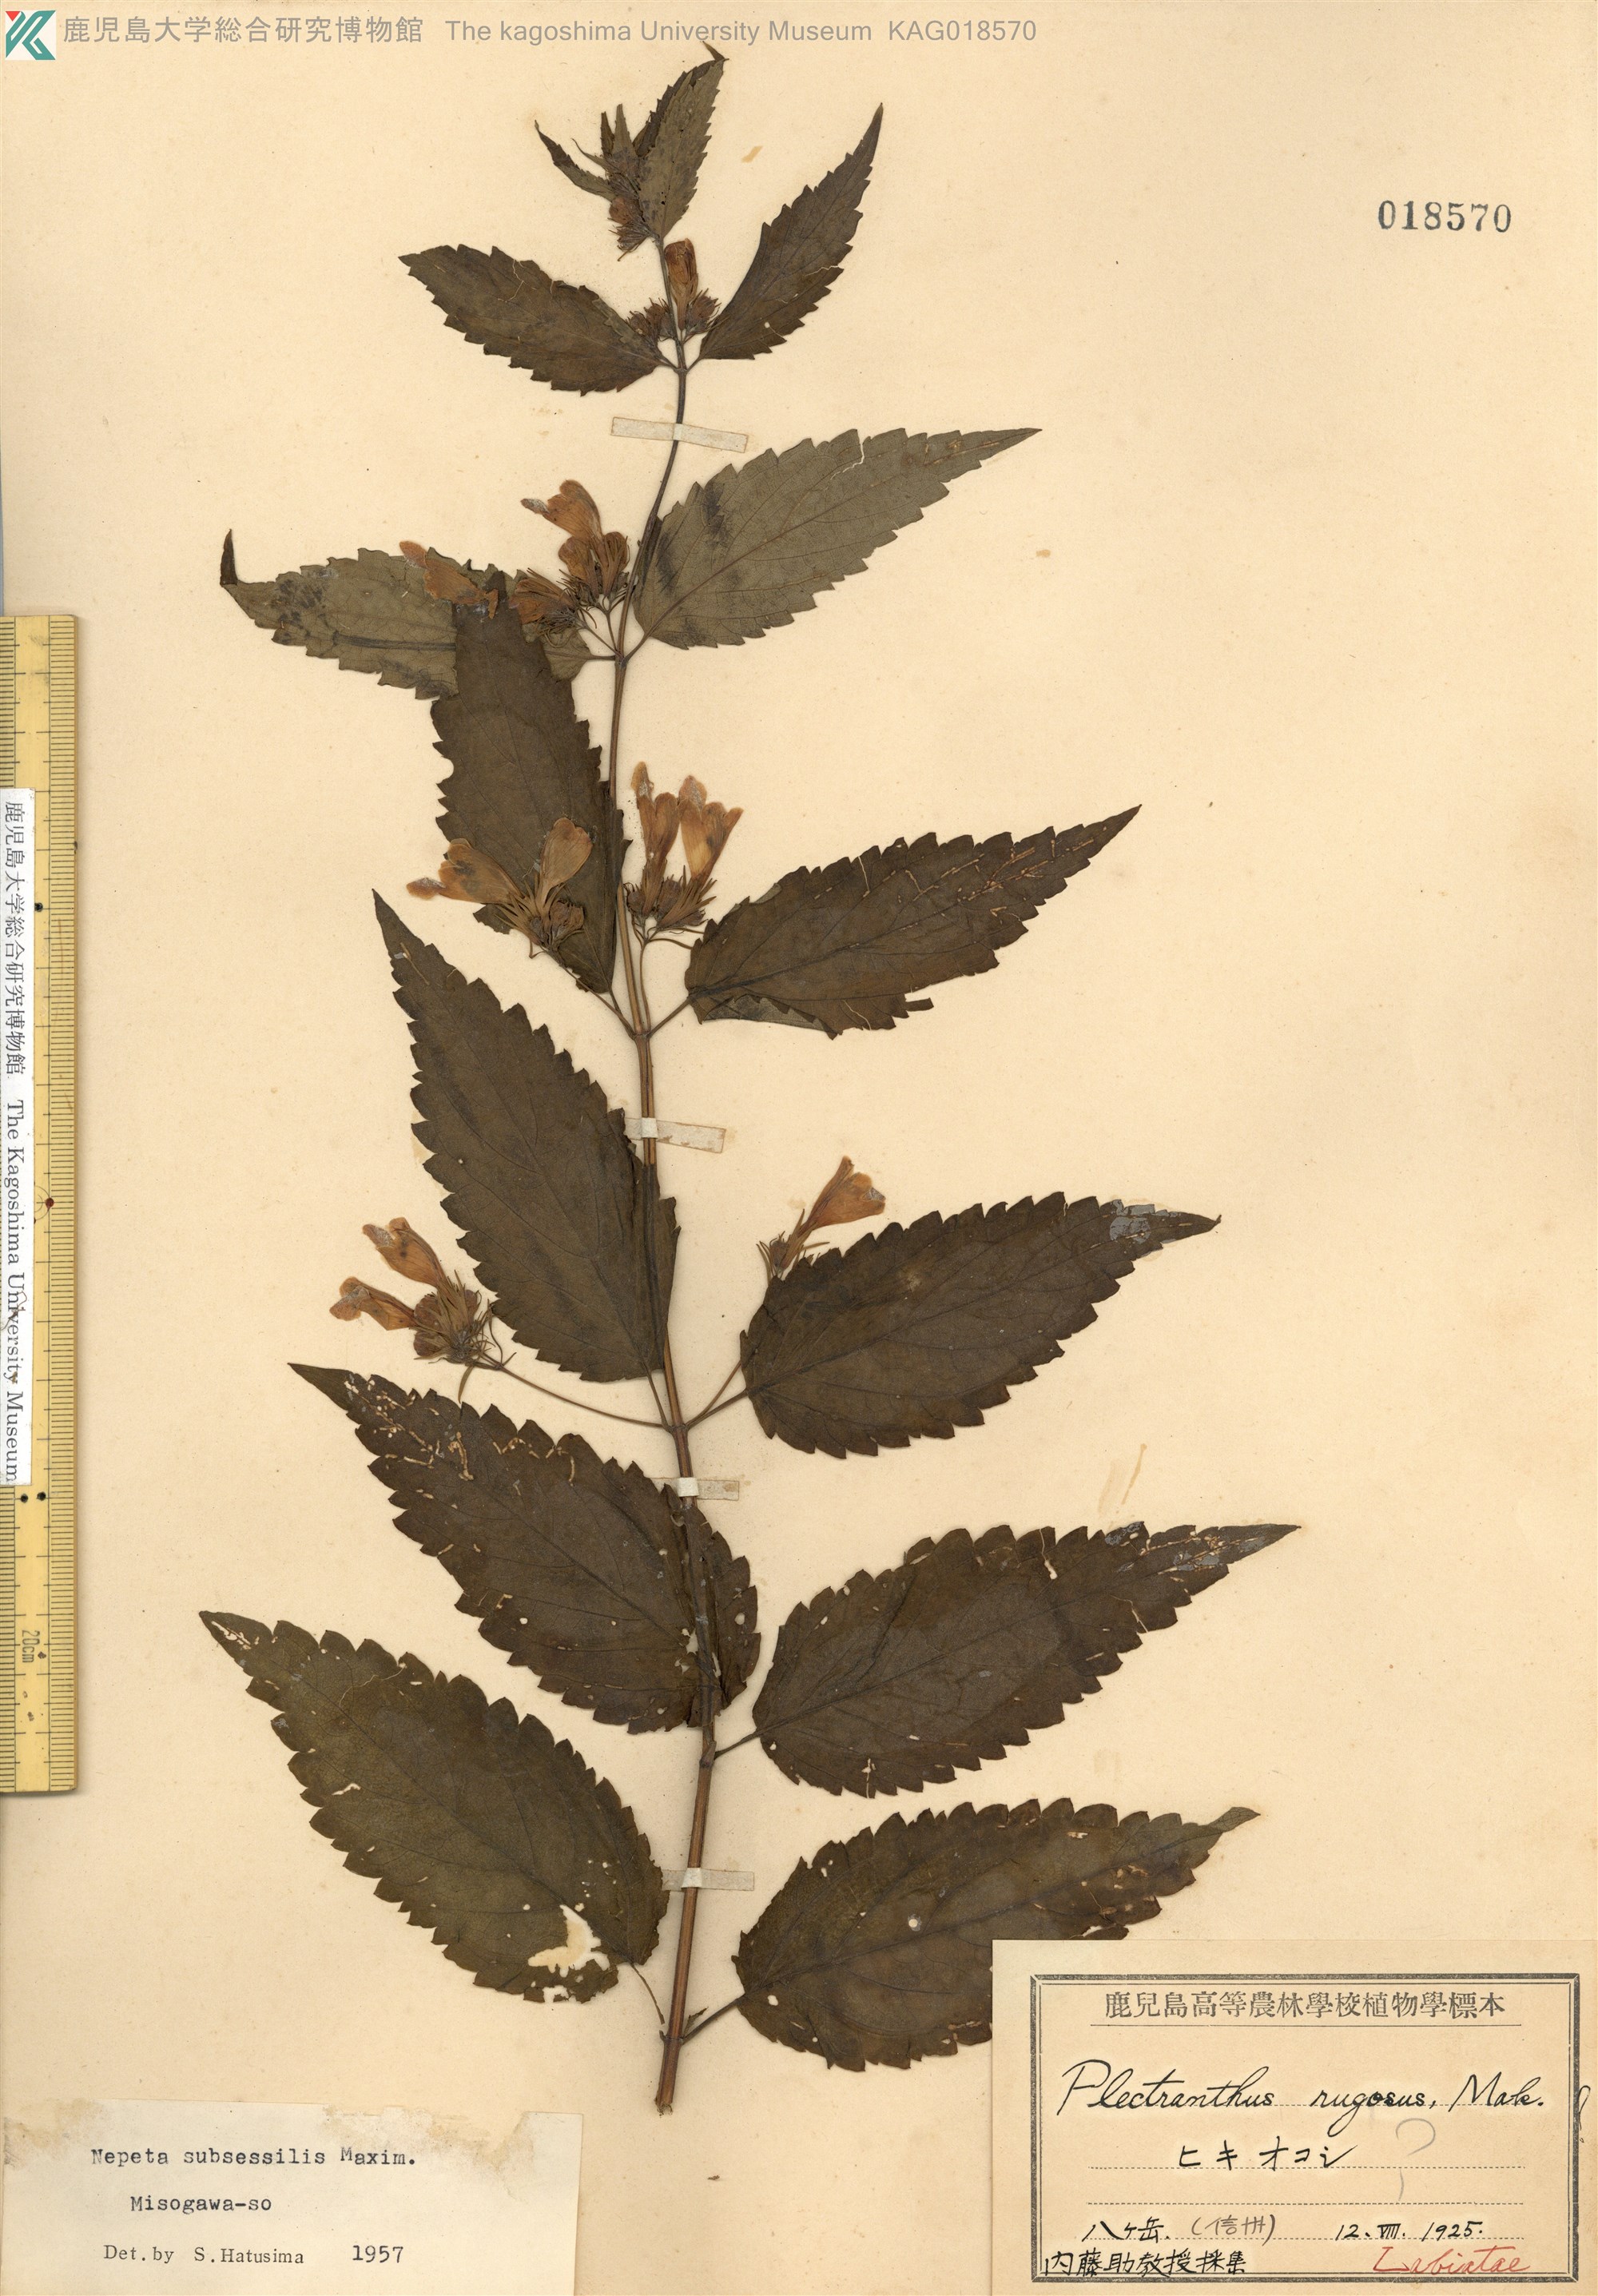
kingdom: Plantae
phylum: Tracheophyta
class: Magnoliopsida
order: Lamiales
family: Lamiaceae
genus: Nepeta
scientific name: Nepeta subsessilis
